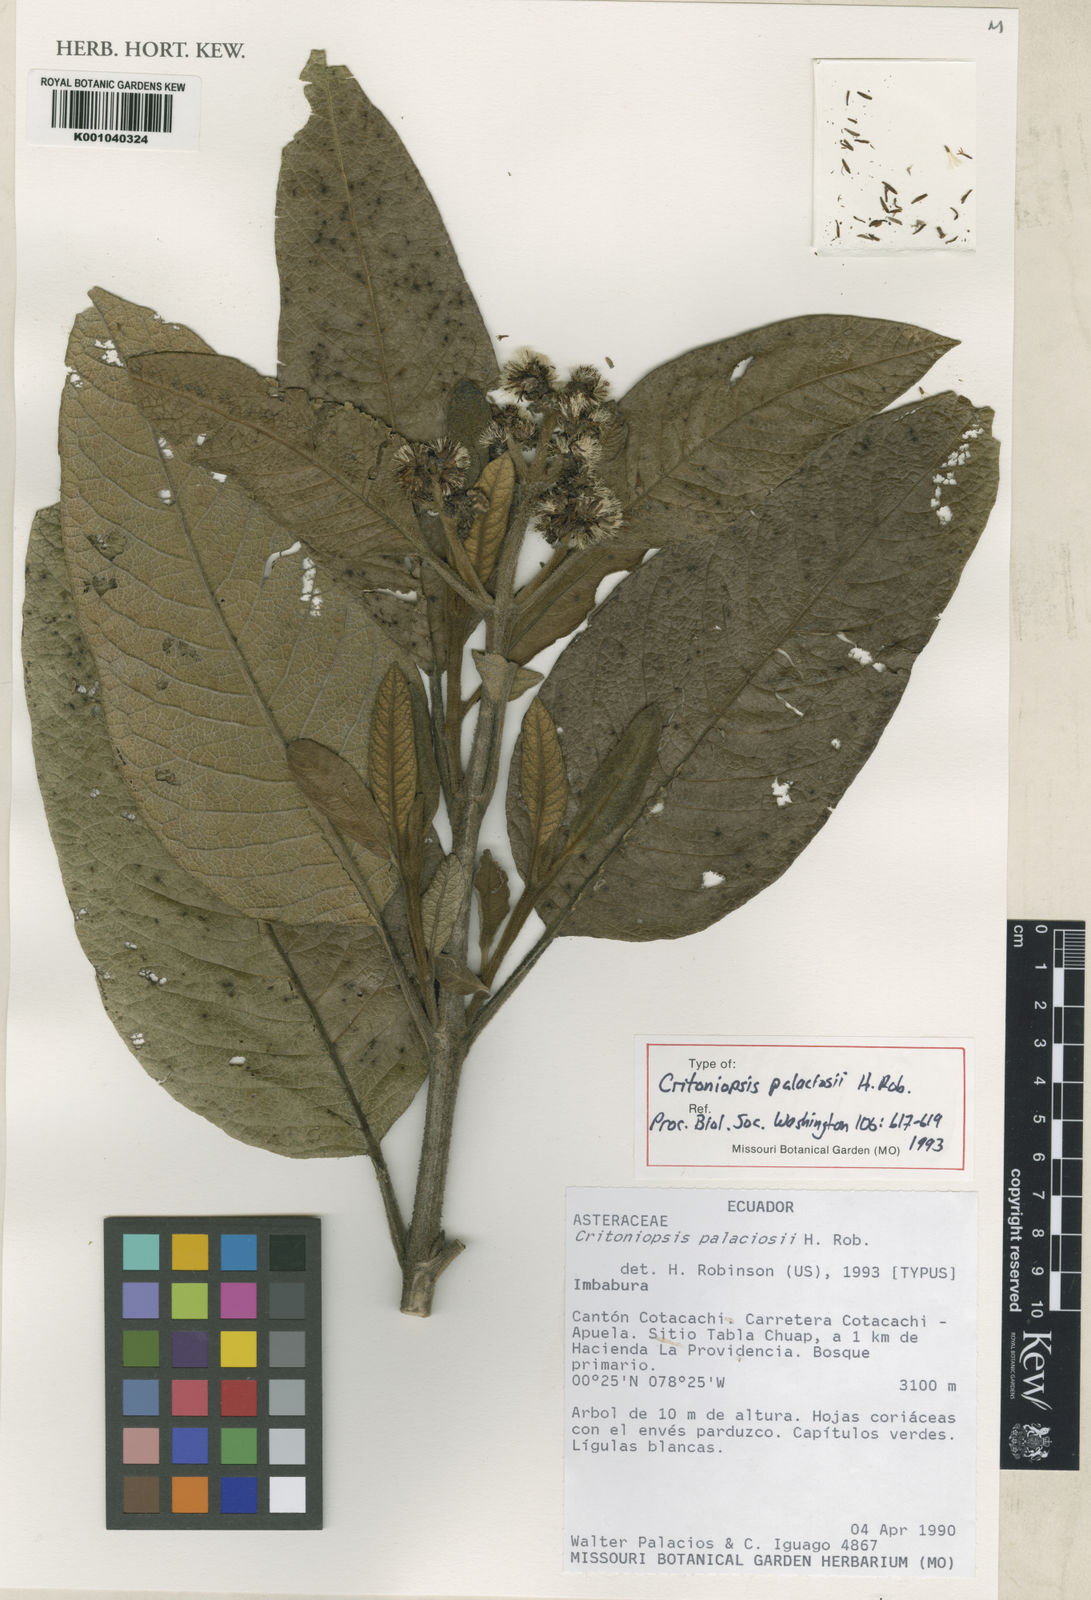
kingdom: Plantae
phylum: Tracheophyta
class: Magnoliopsida
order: Asterales
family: Asteraceae
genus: Critoniopsis
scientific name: Critoniopsis palaciosii
